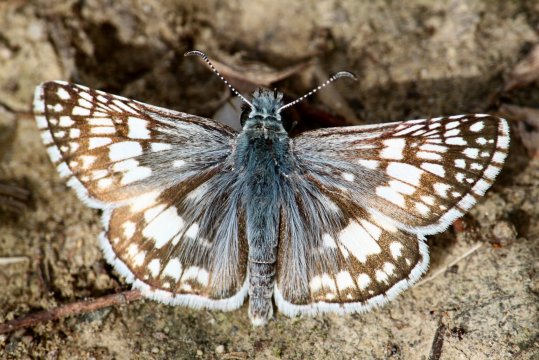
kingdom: Animalia
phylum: Arthropoda
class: Insecta
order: Lepidoptera
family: Hesperiidae
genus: Pyrgus
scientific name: Pyrgus communis
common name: Common Checkered-Skipper
